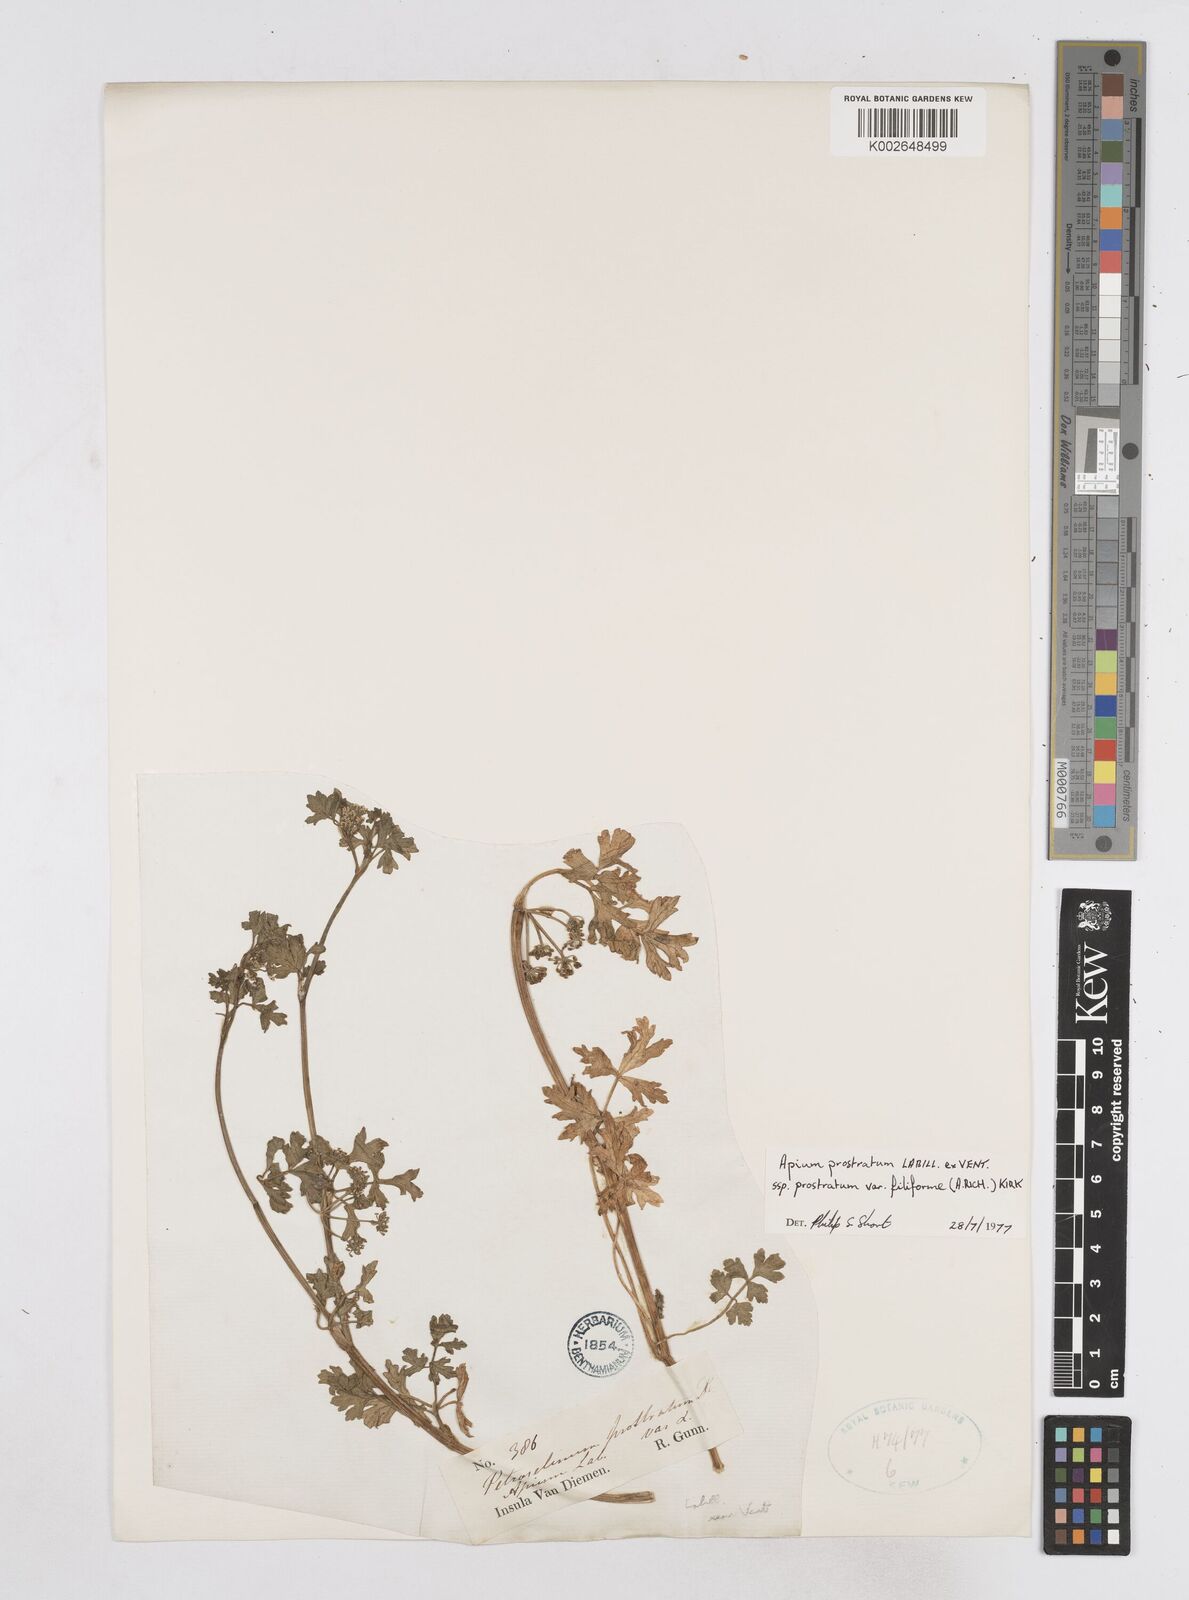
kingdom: Plantae
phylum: Tracheophyta
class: Magnoliopsida
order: Apiales
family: Apiaceae
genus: Apium
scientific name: Apium prostratum
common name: Prostrate marshwort
